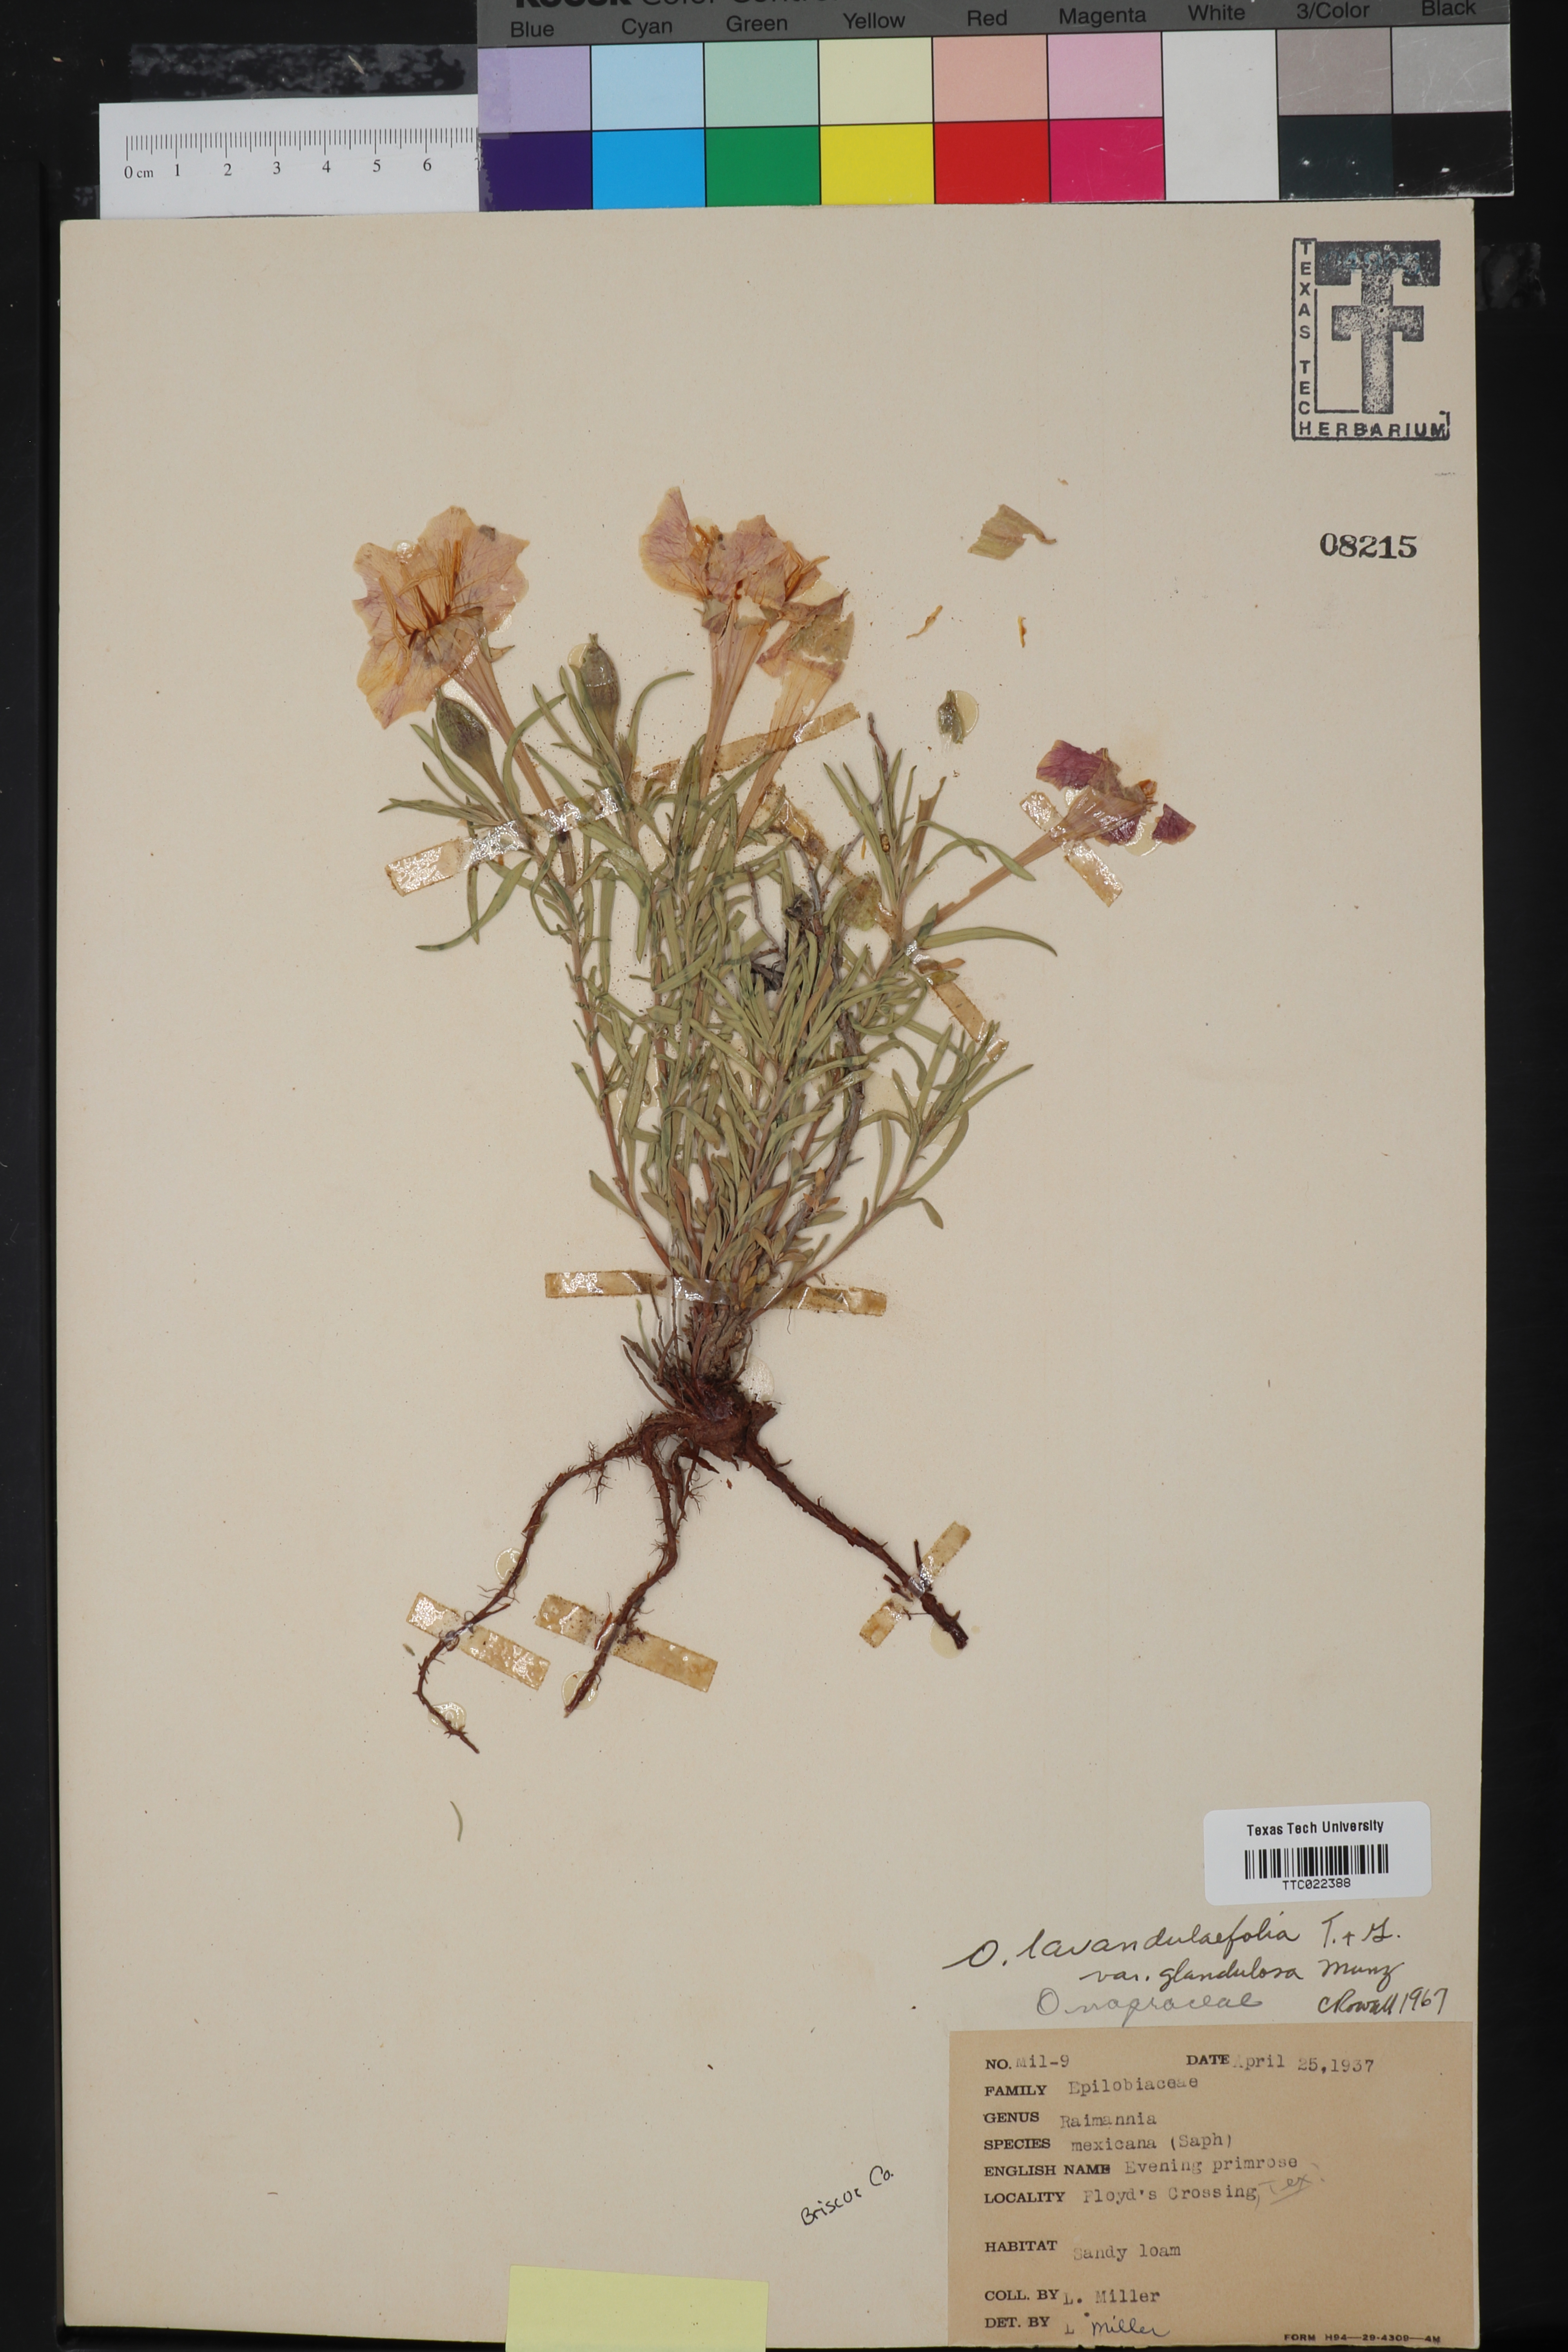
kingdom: Plantae
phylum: Tracheophyta
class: Magnoliopsida
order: Myrtales
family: Onagraceae
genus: Oenothera
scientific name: Oenothera
